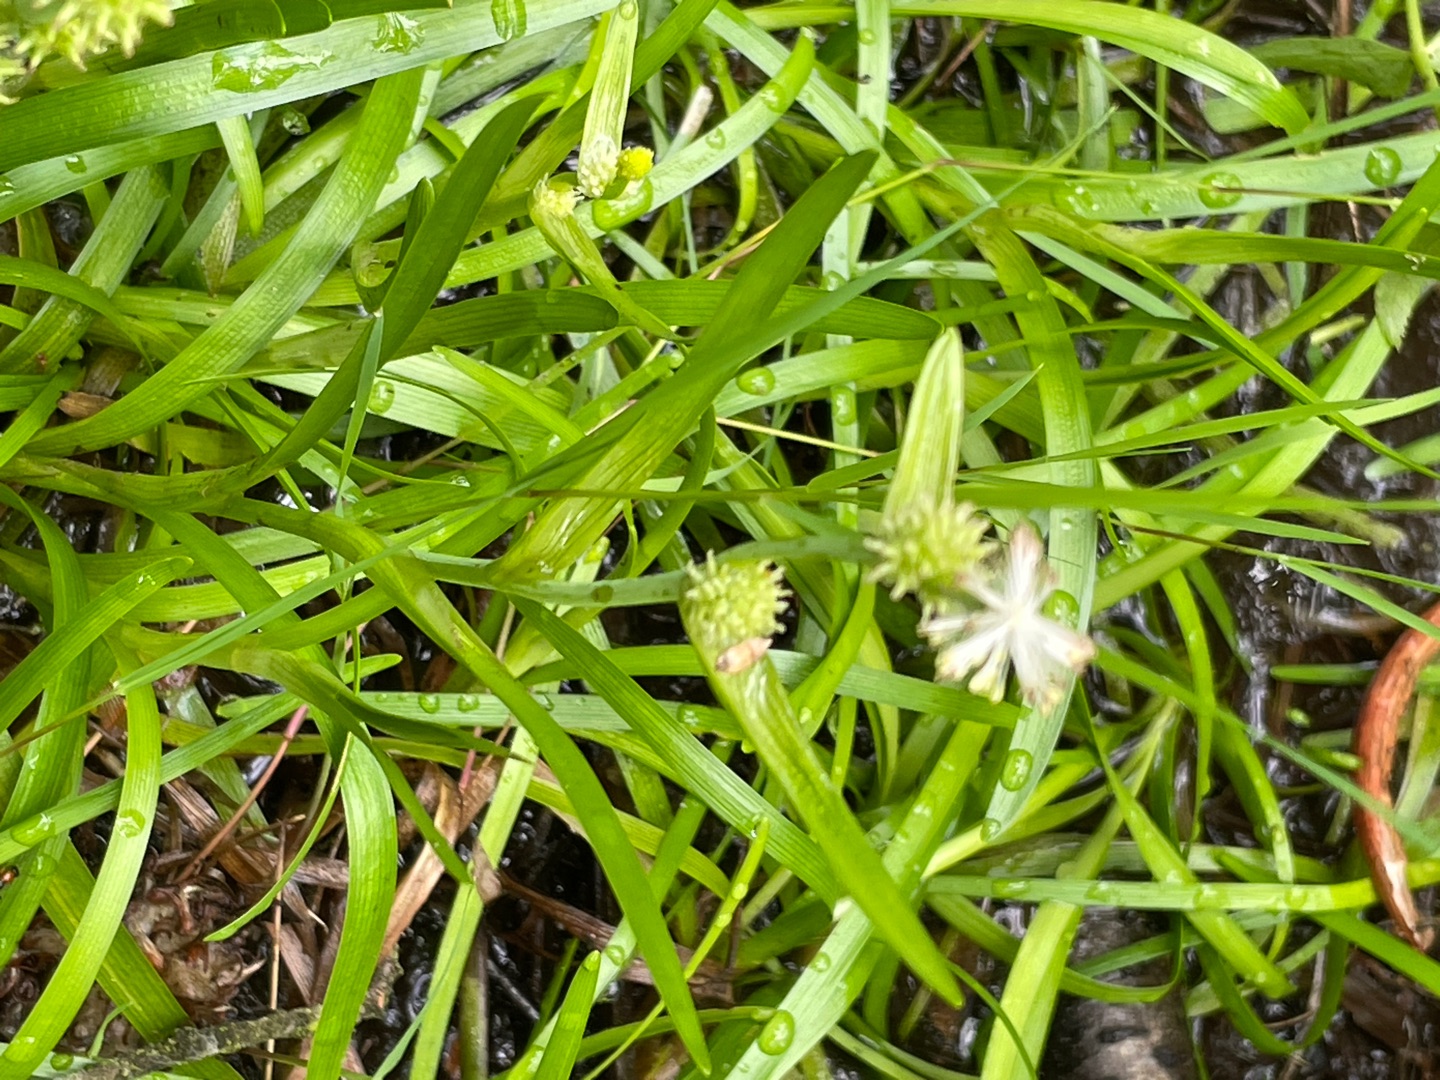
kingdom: Plantae
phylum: Tracheophyta
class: Liliopsida
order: Poales
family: Typhaceae
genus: Sparganium
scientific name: Sparganium natans
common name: Spæd pindsvineknop
